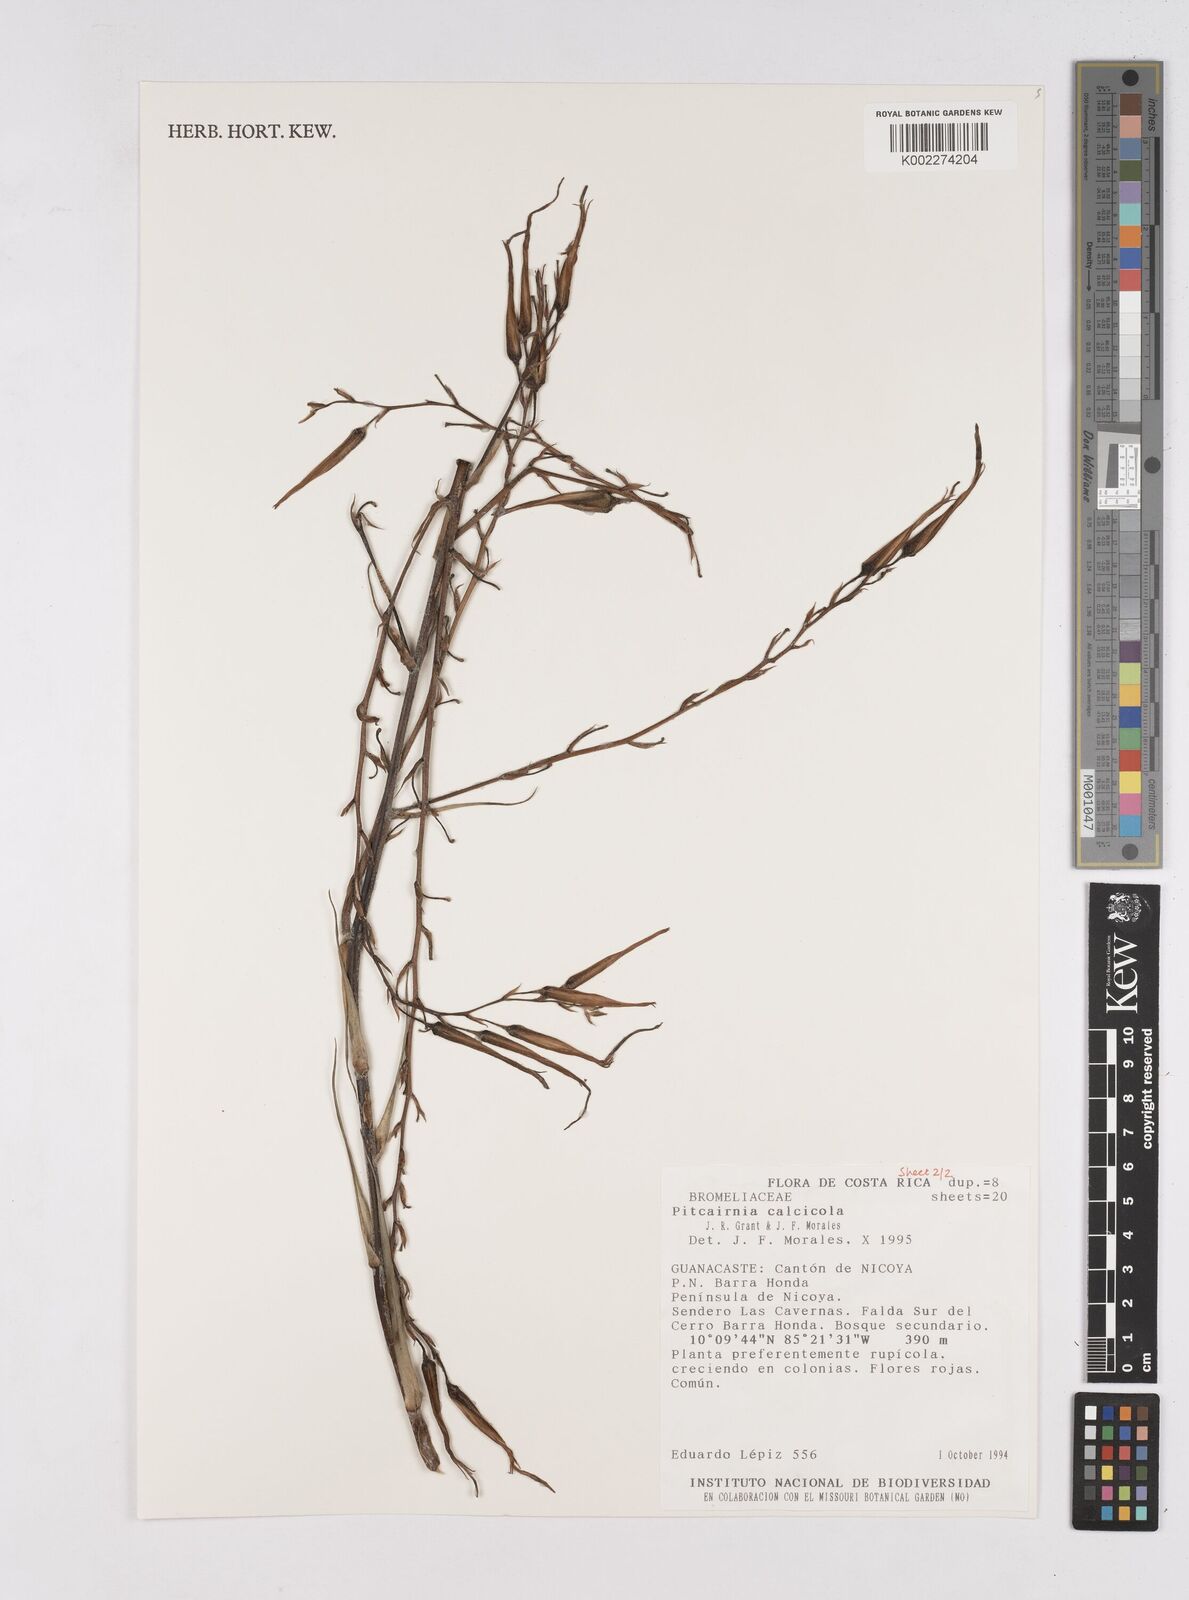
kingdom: Plantae
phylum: Tracheophyta
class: Liliopsida
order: Poales
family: Bromeliaceae
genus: Pitcairnia
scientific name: Pitcairnia calcicola
